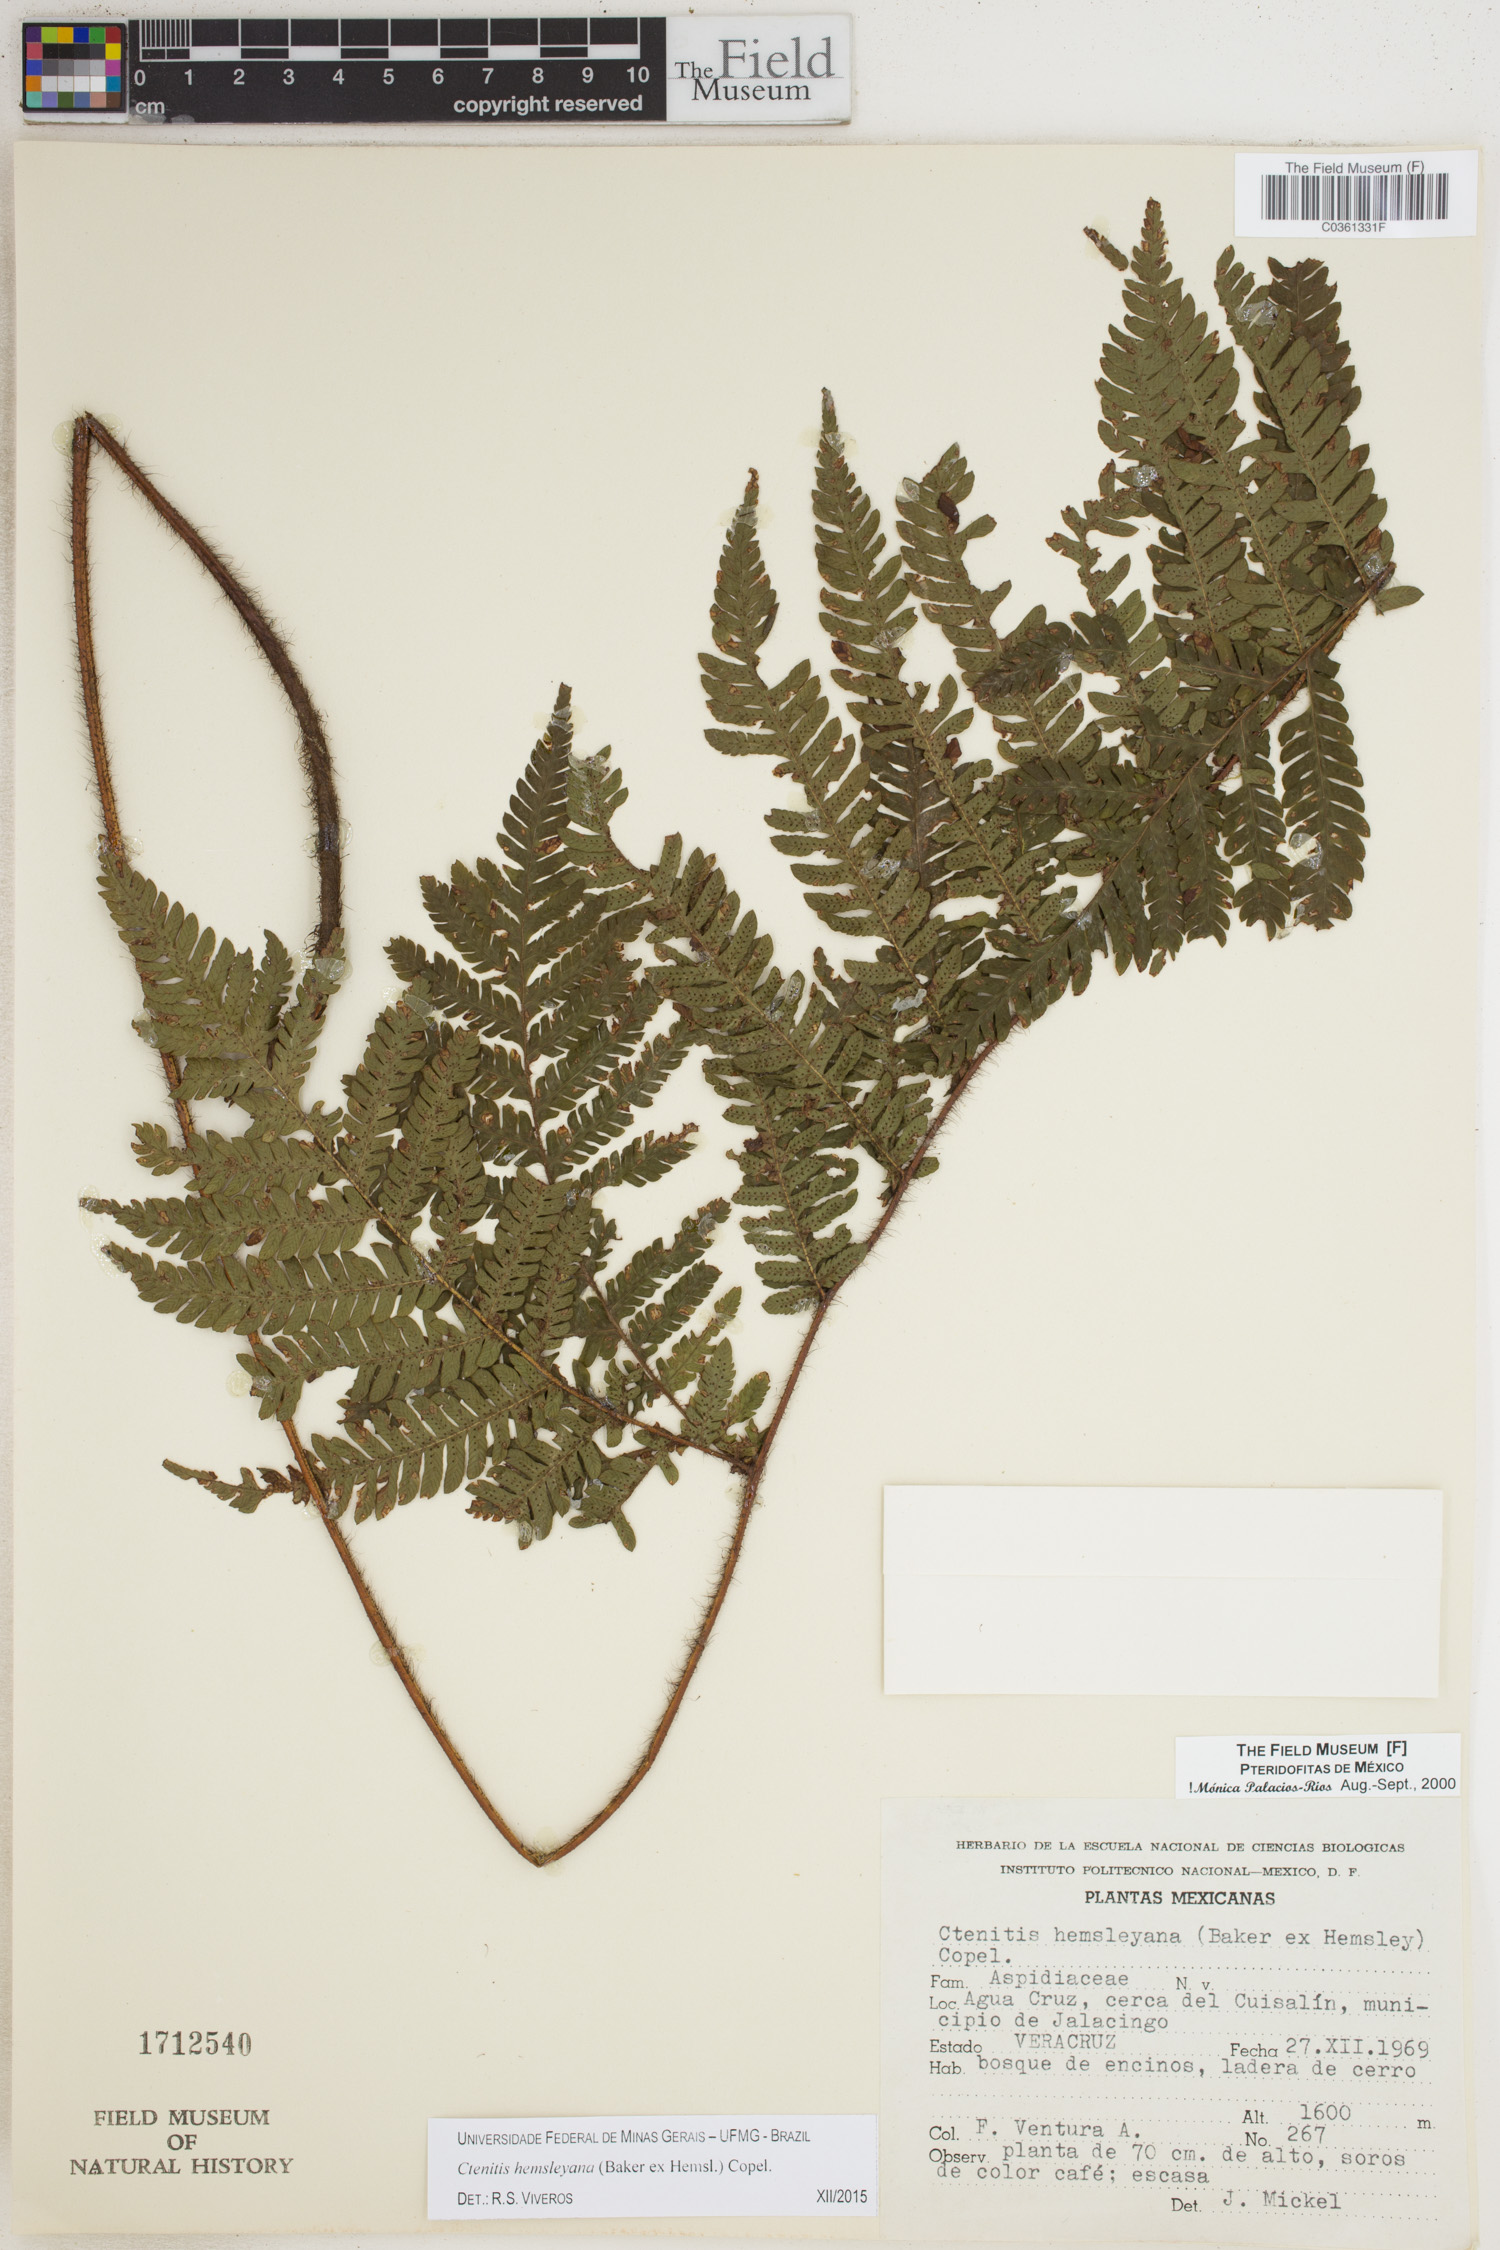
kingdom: Plantae
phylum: Tracheophyta
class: Polypodiopsida
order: Polypodiales
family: Dryopteridaceae
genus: Ctenitis
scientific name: Ctenitis hemsleyana
